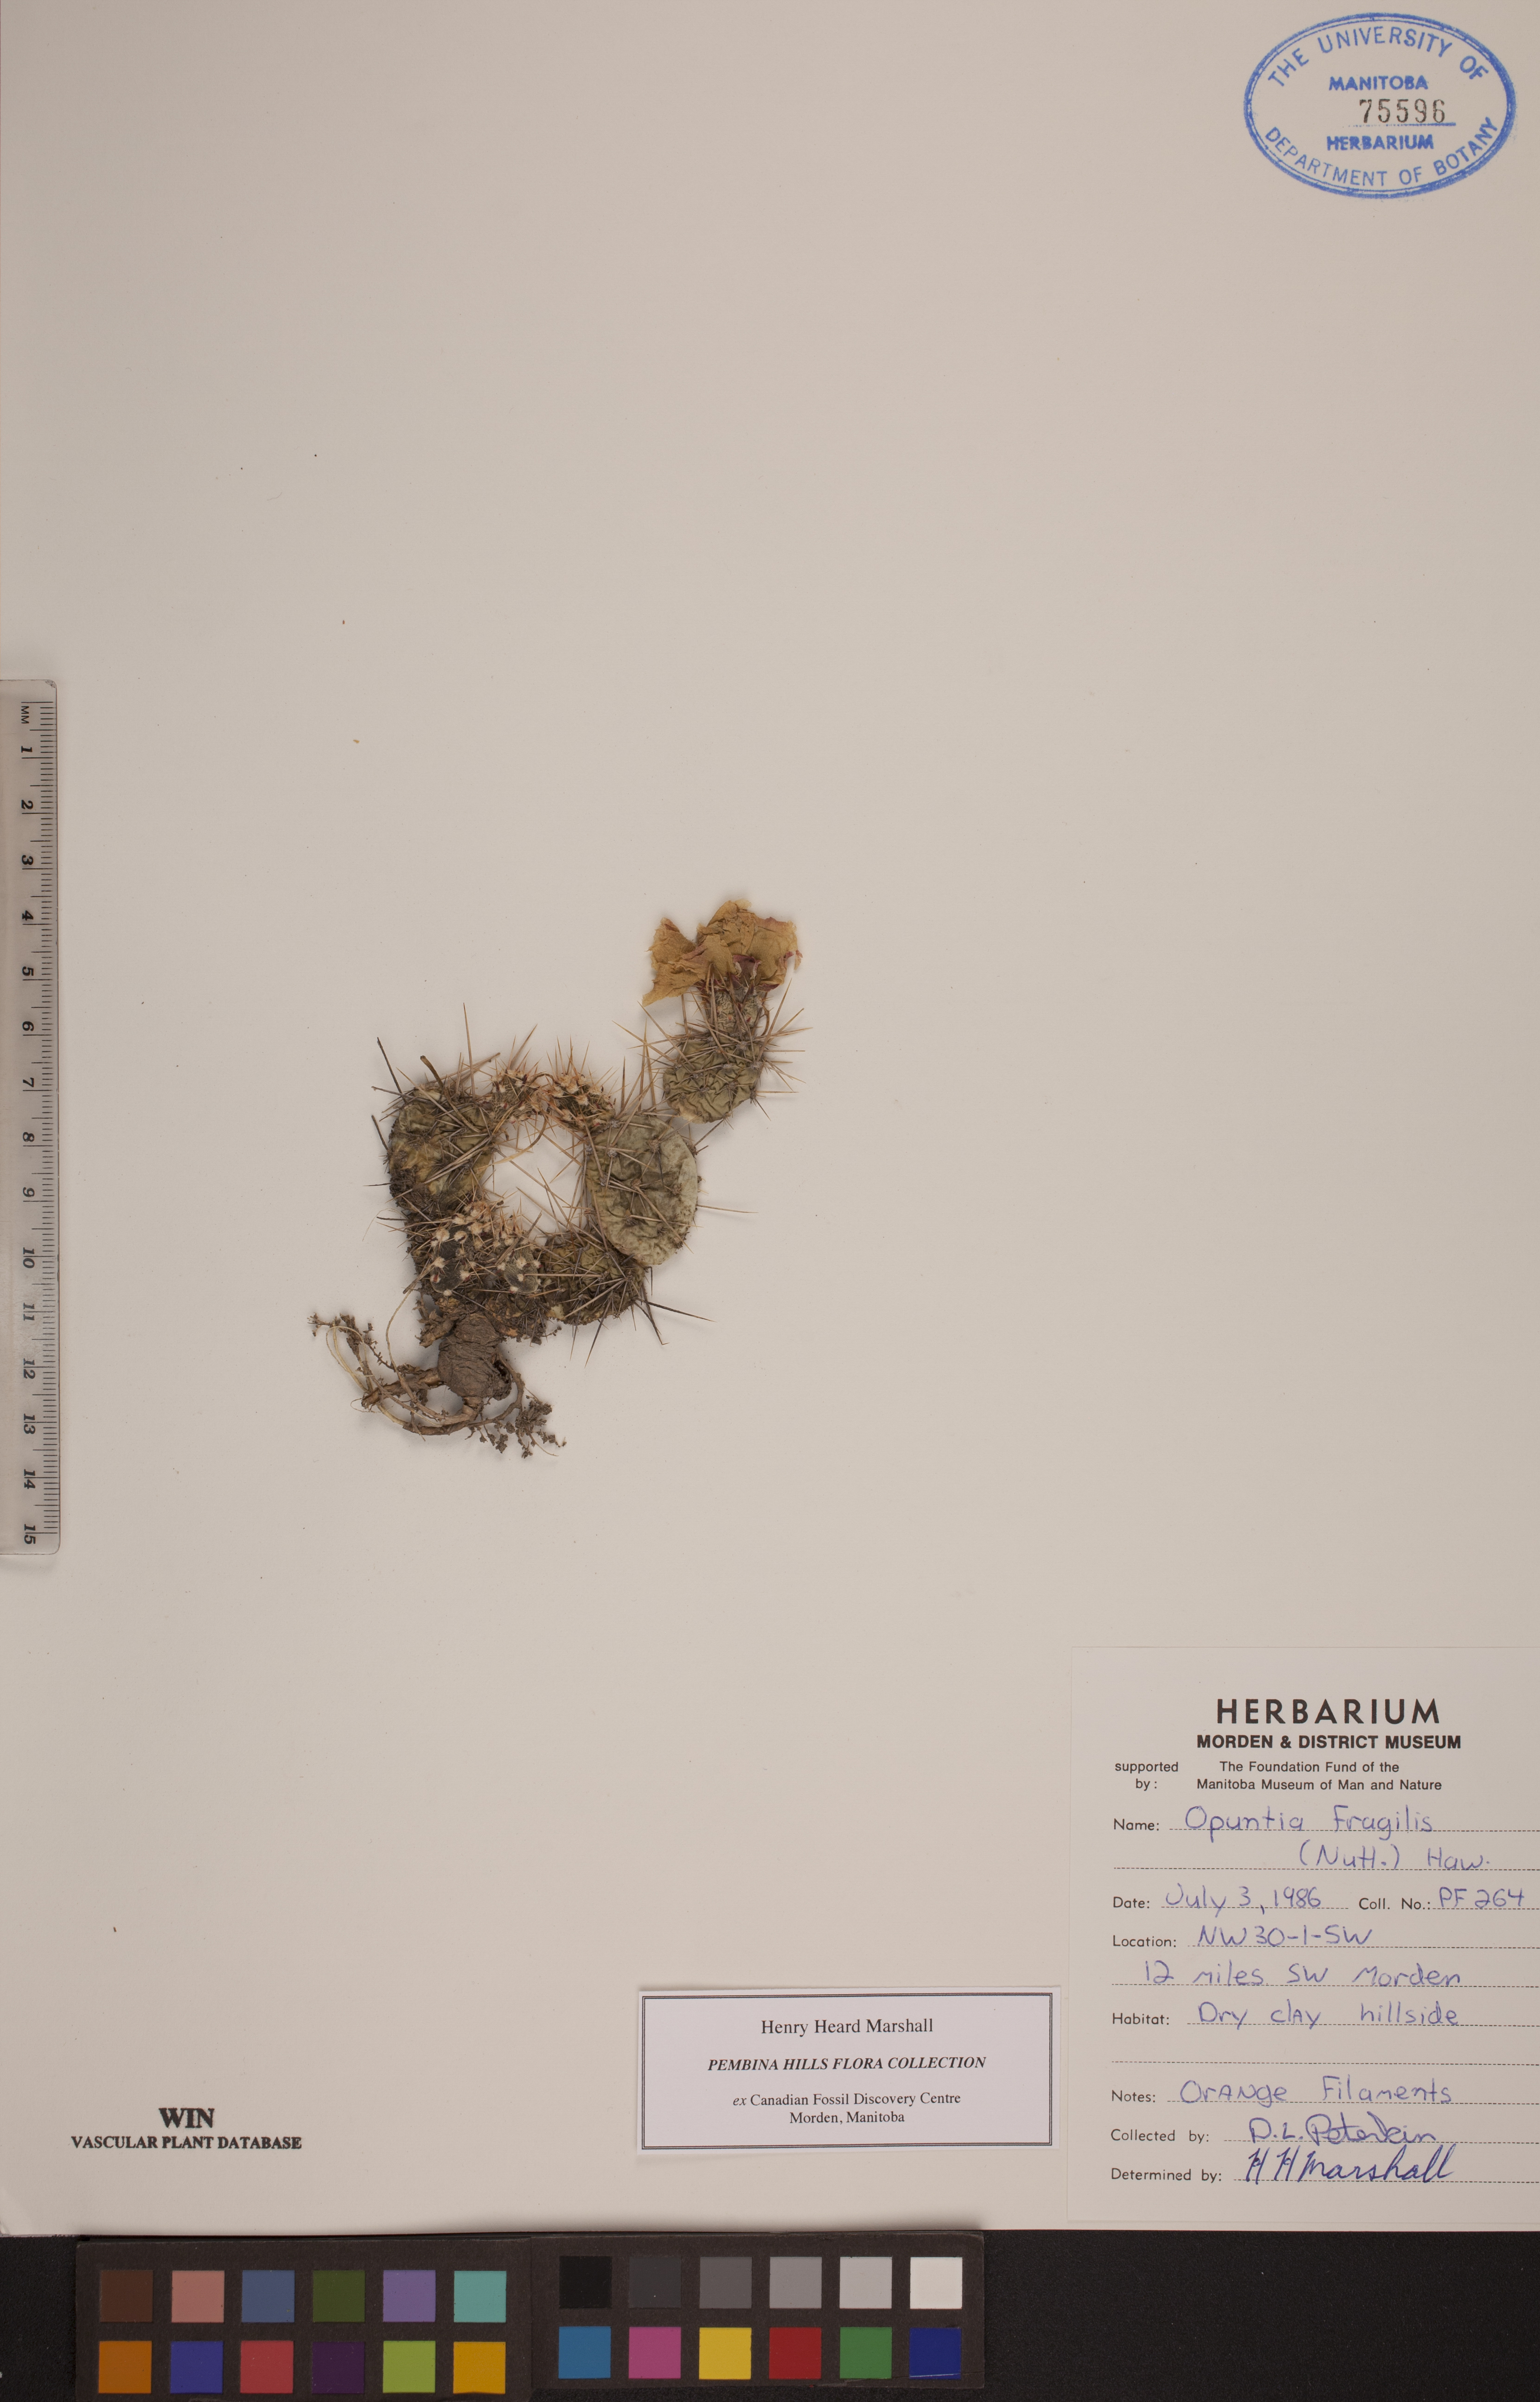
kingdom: Plantae
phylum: Tracheophyta
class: Magnoliopsida
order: Caryophyllales
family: Cactaceae
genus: Opuntia
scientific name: Opuntia fragilis
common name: Brittle cactus
